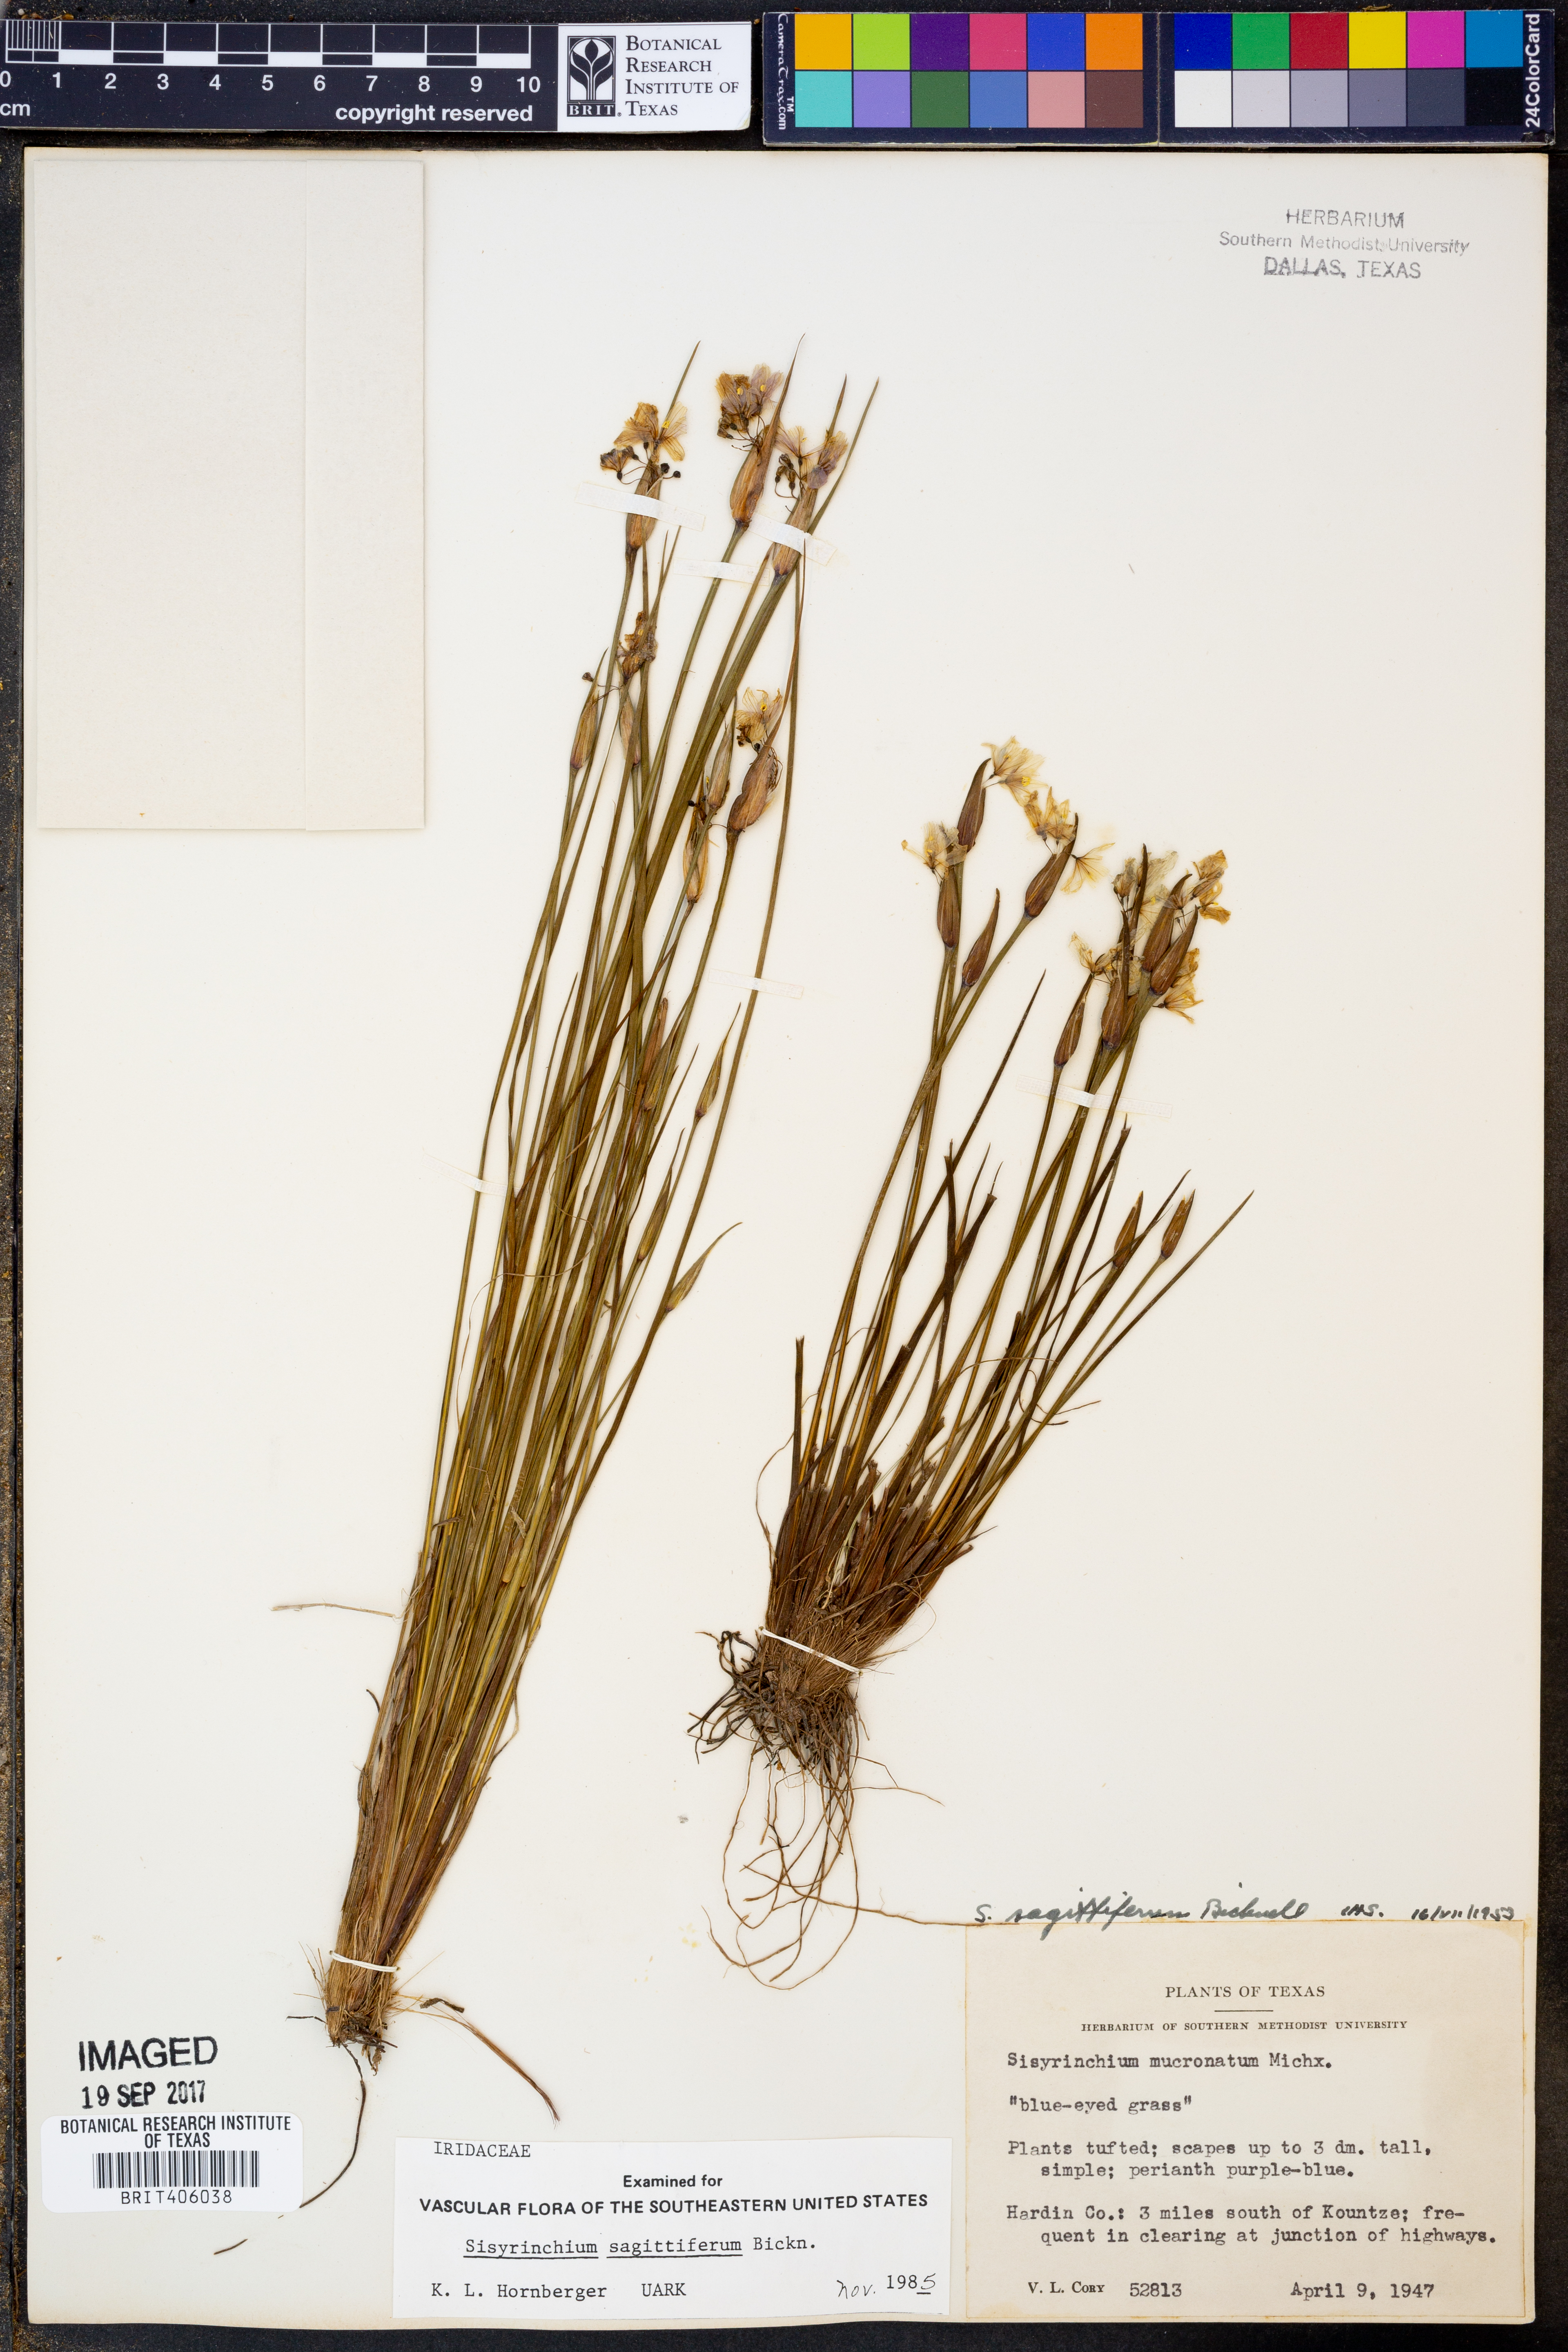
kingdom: Plantae
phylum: Tracheophyta
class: Liliopsida
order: Asparagales
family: Iridaceae
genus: Sisyrinchium
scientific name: Sisyrinchium sagittiferum
